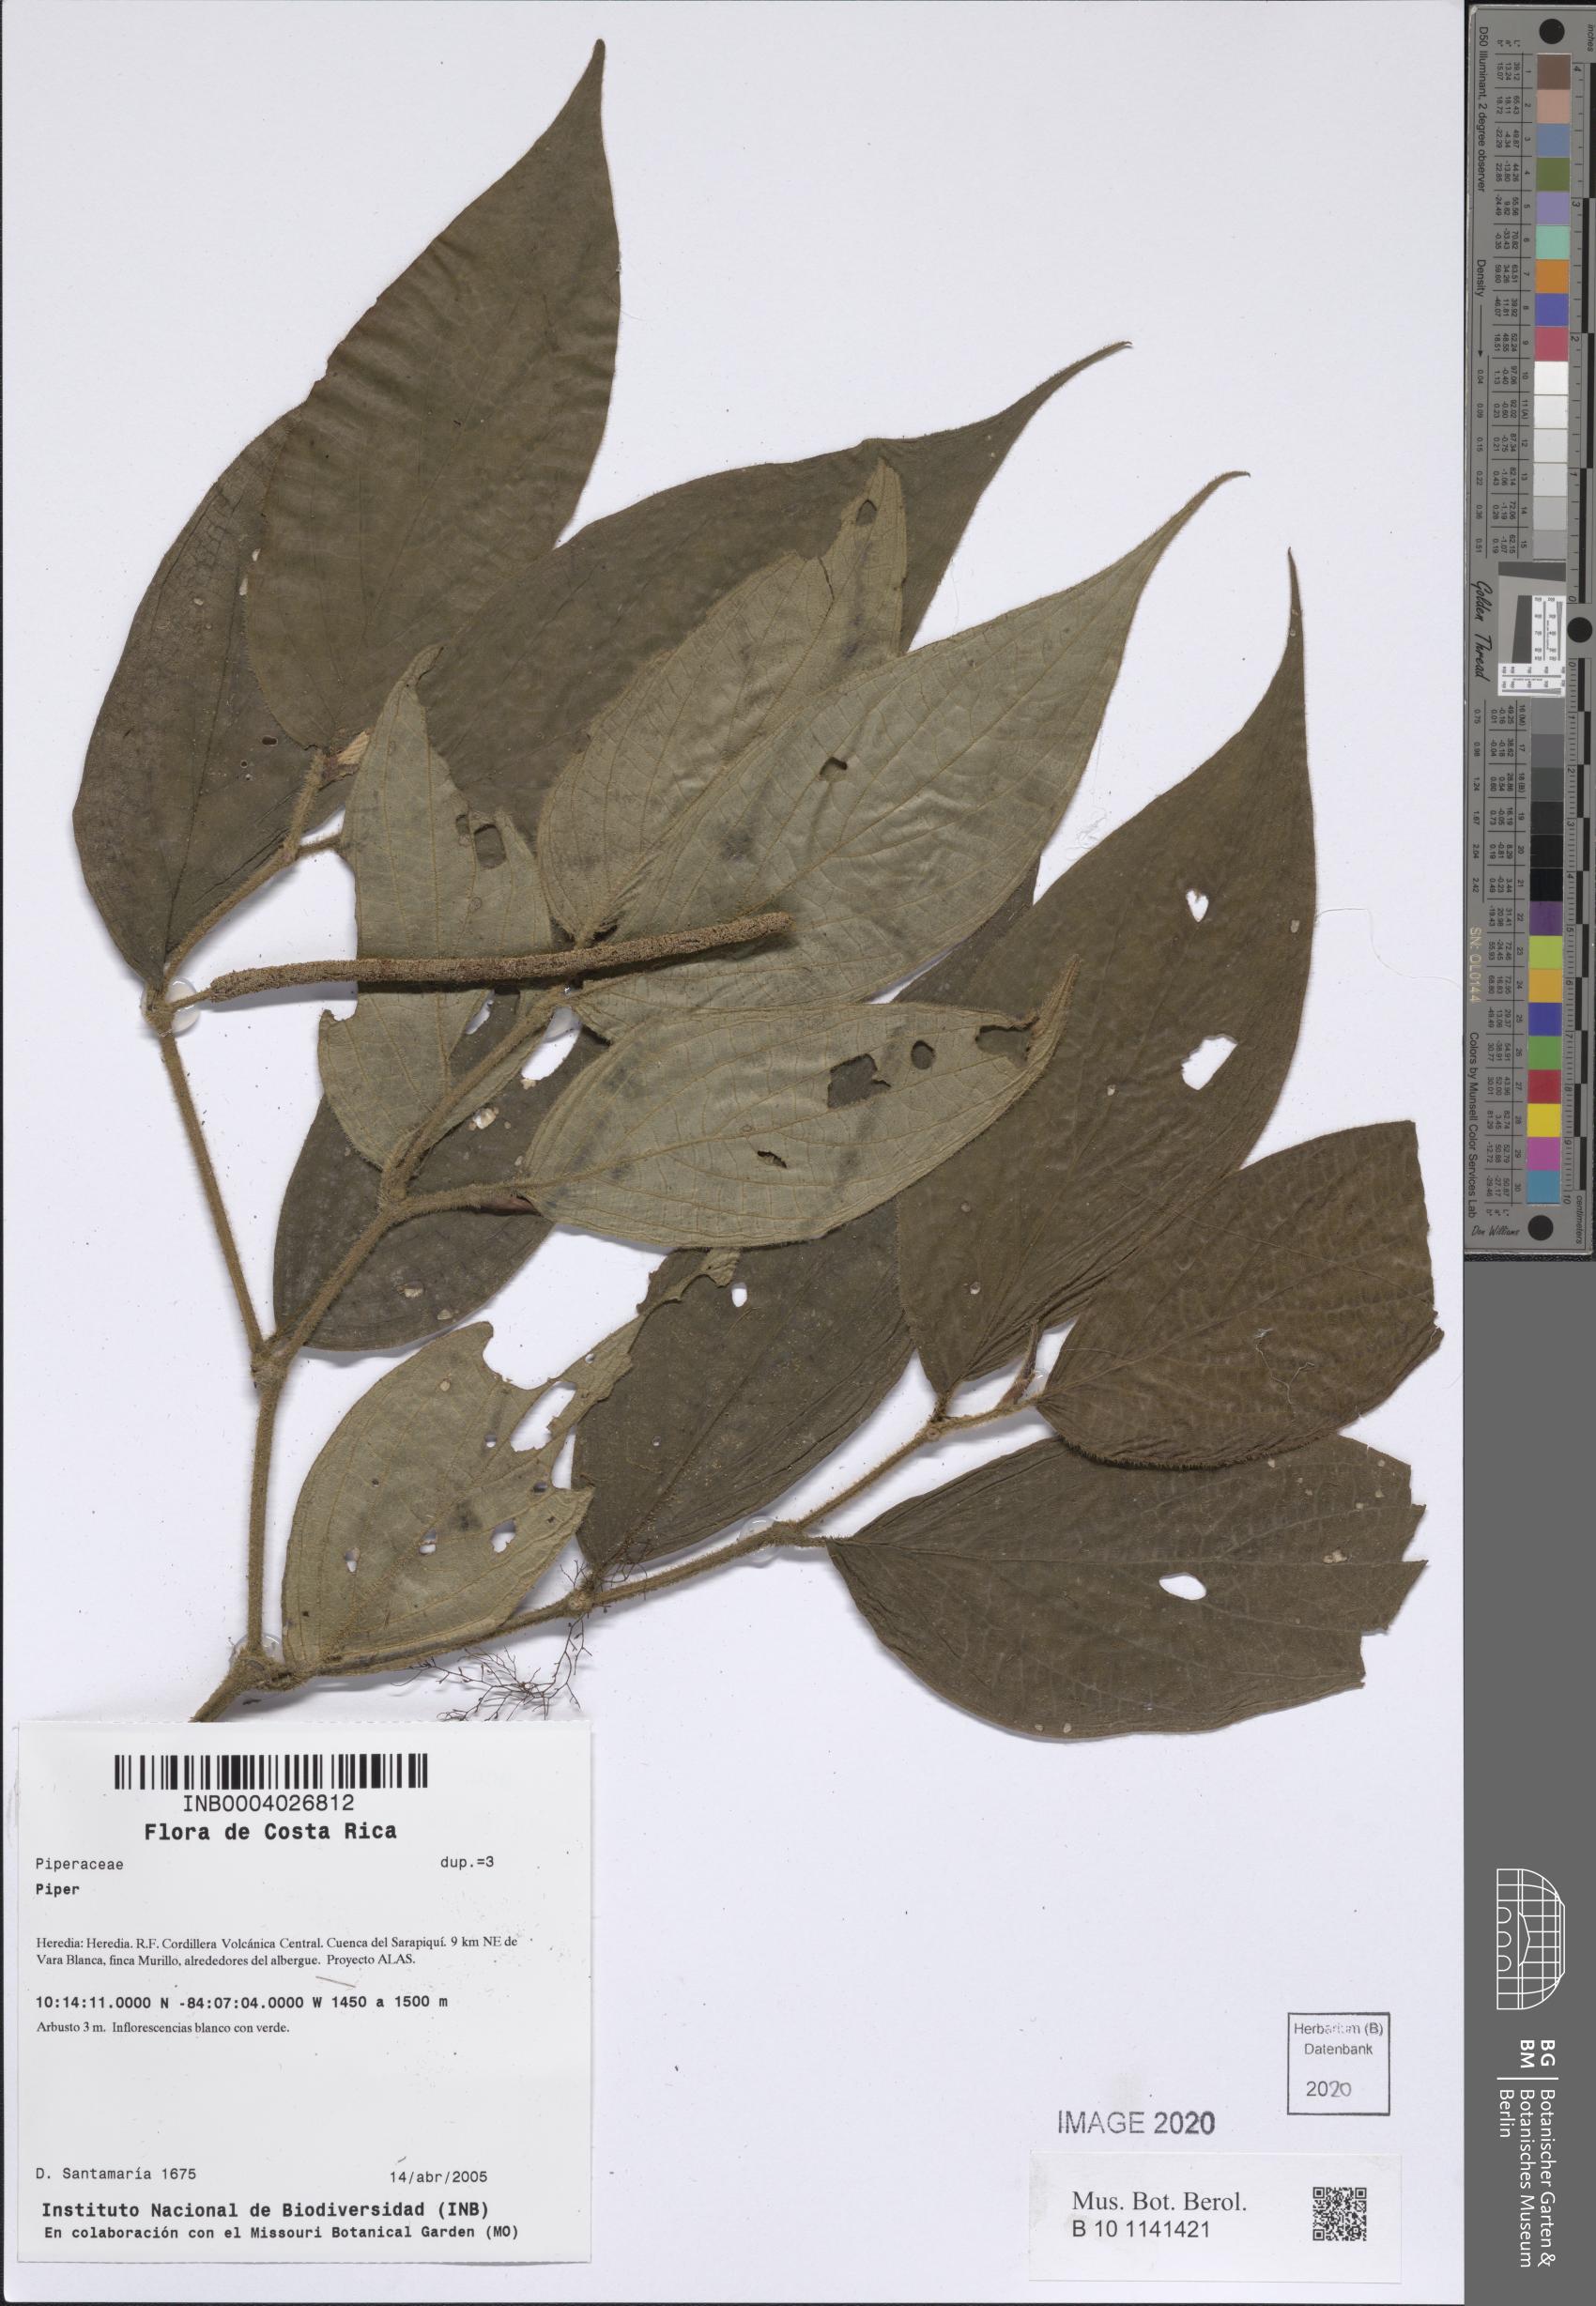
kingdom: Plantae
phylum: Tracheophyta
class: Magnoliopsida
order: Piperales
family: Piperaceae
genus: Piper
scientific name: Piper
